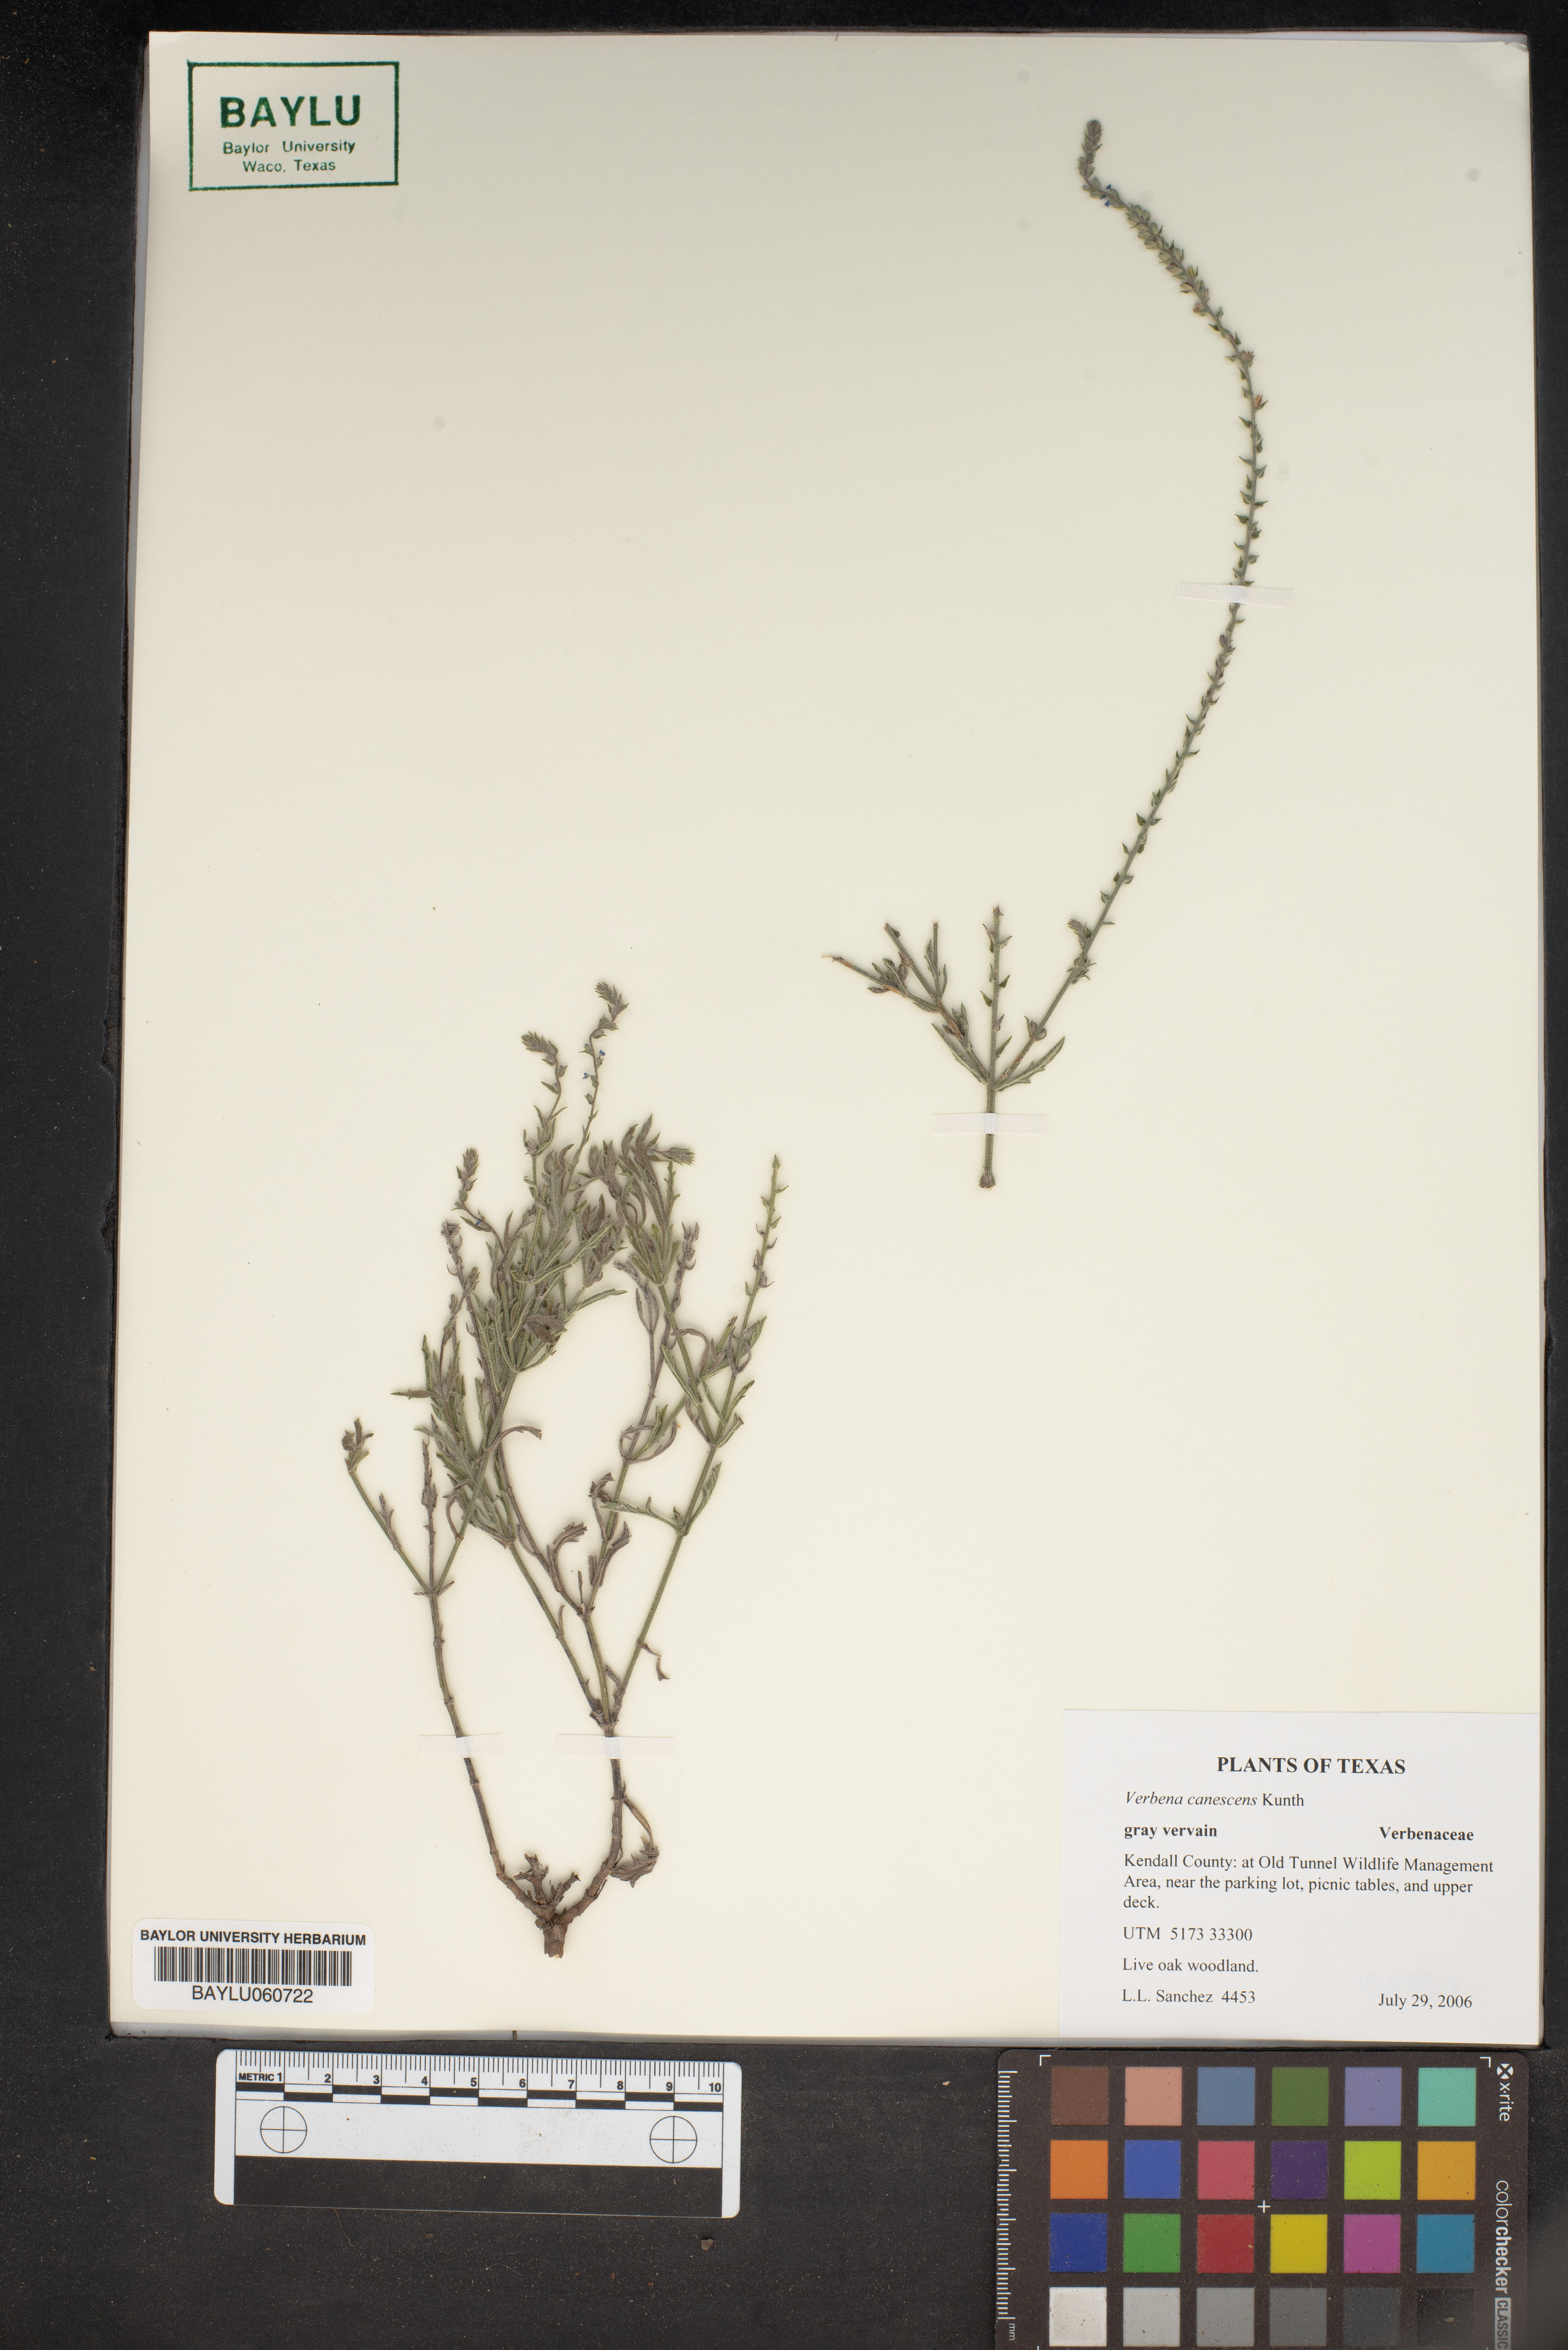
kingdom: Plantae
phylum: Tracheophyta
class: Magnoliopsida
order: Lamiales
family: Verbenaceae
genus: Verbena
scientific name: Verbena canescens
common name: Gray vervain
